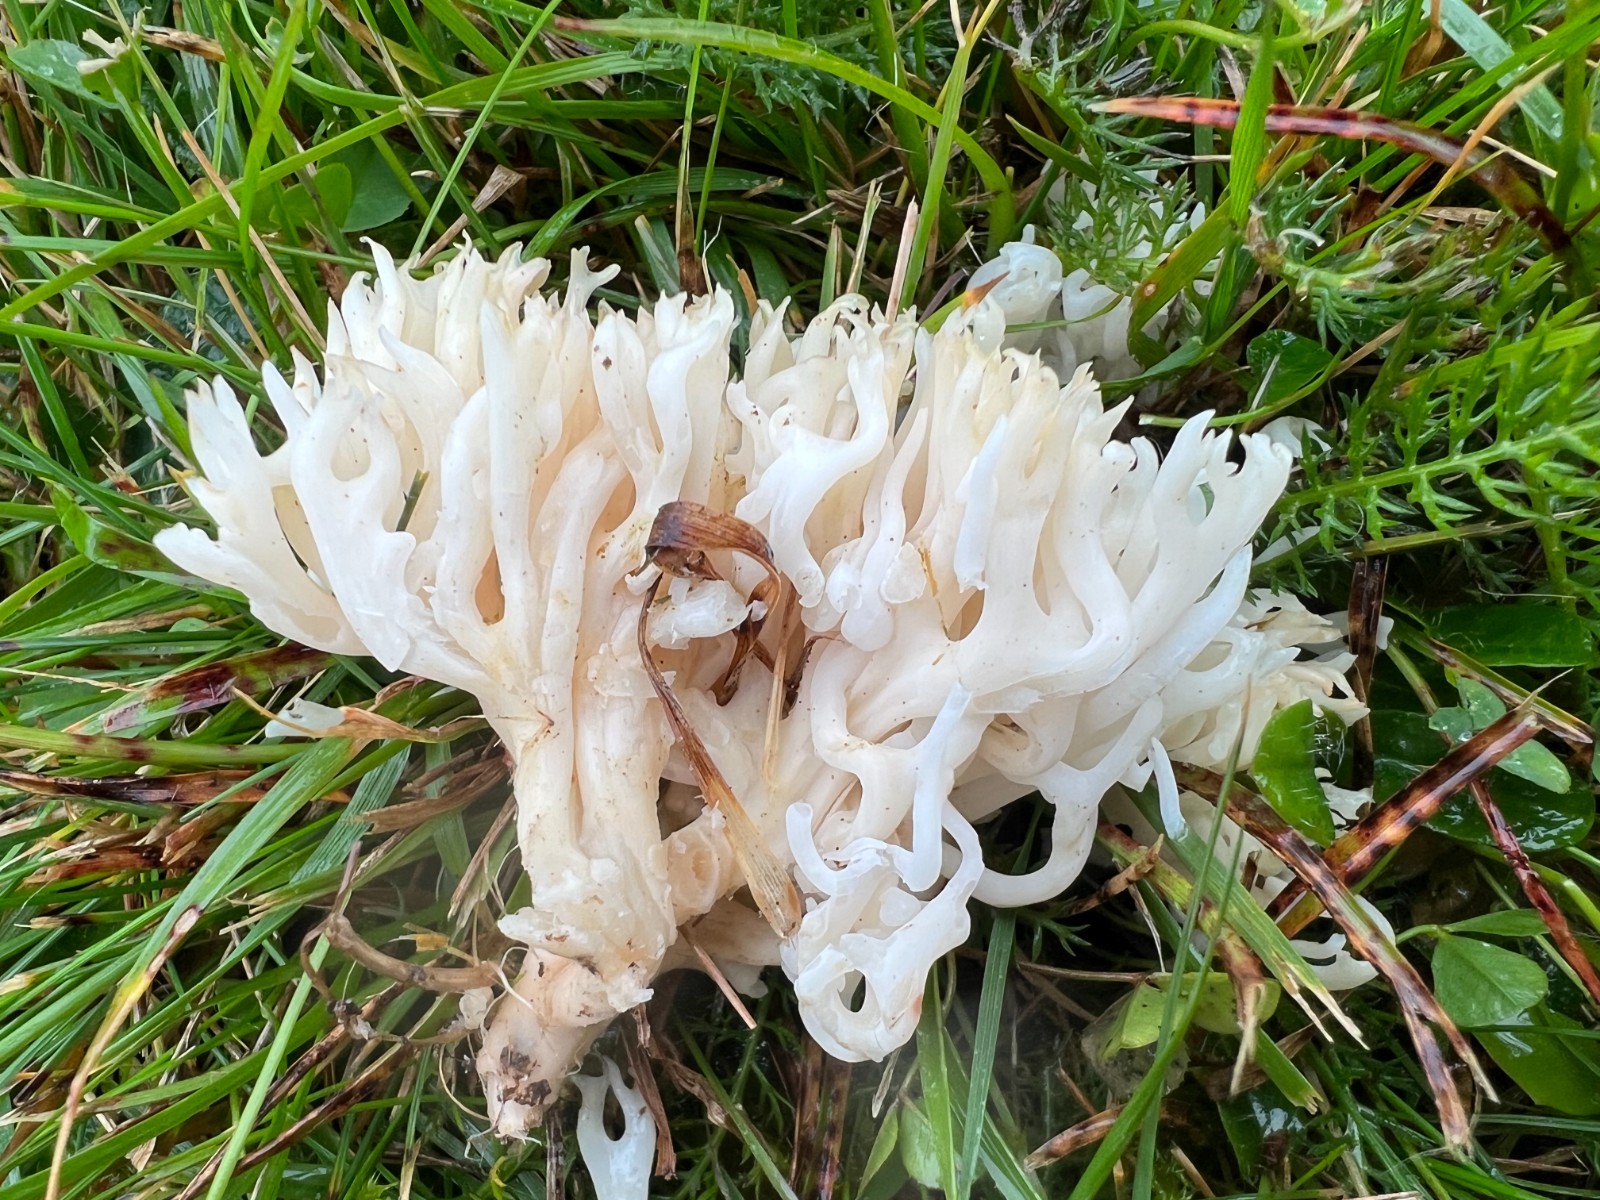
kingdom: Fungi
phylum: Basidiomycota
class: Agaricomycetes
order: Agaricales
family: Clavariaceae
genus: Ramariopsis
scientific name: Ramariopsis robusta
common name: tykgrenet køllesvamp
